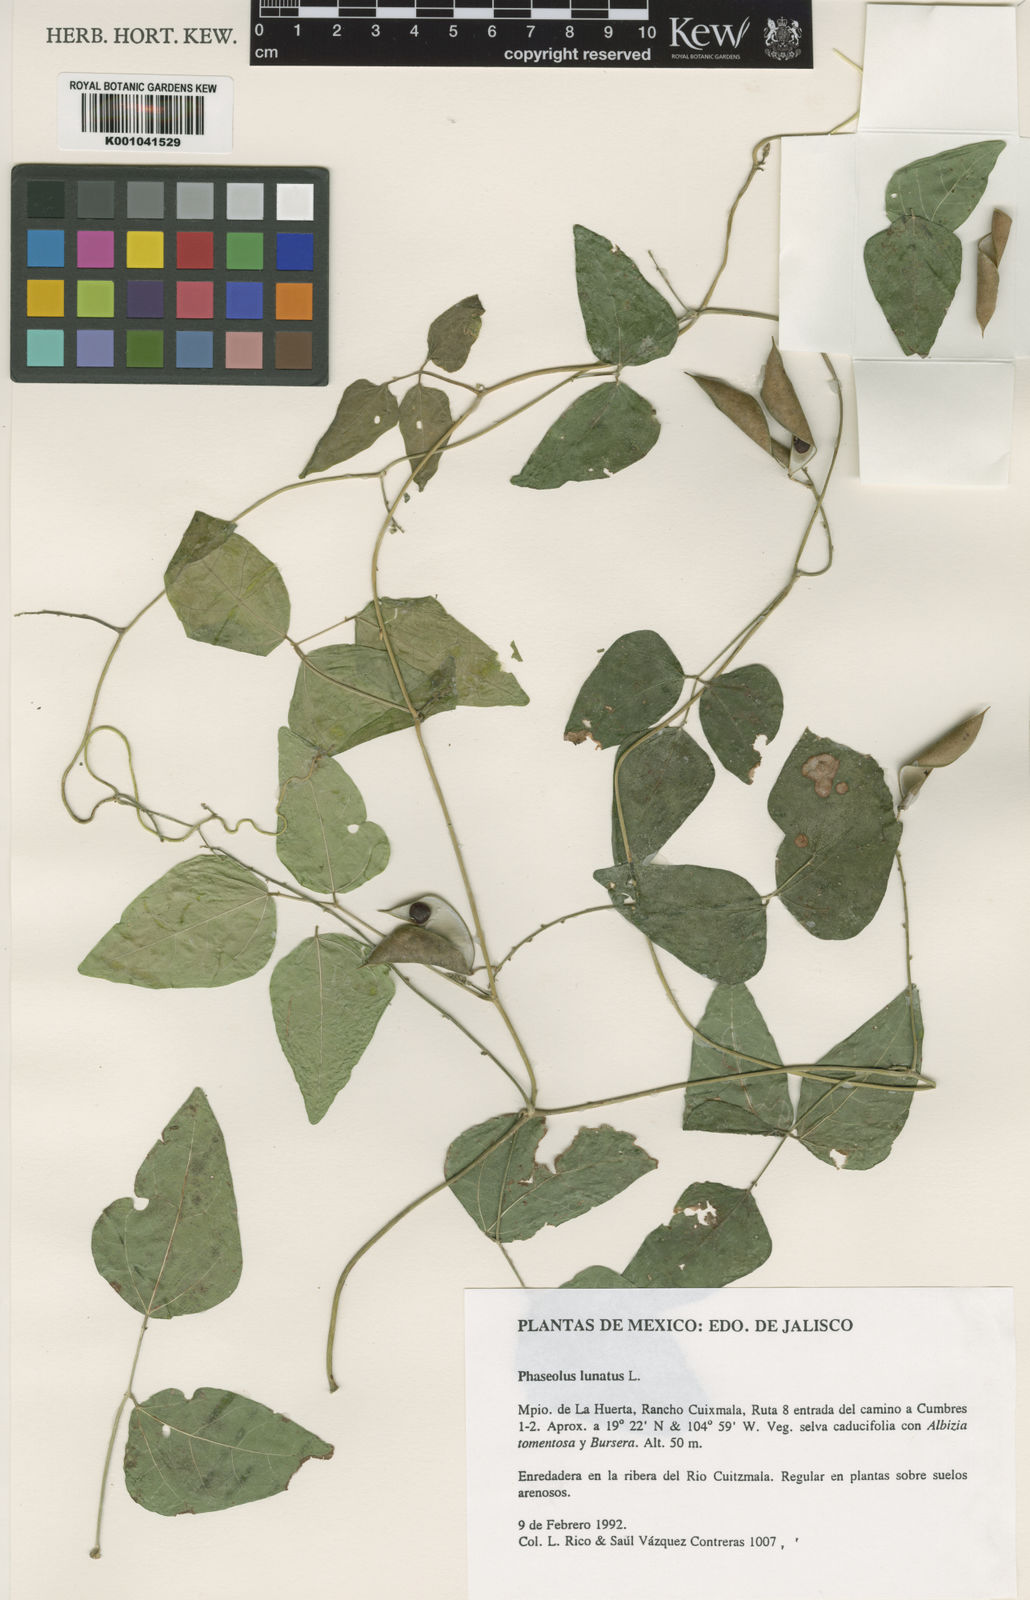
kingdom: Plantae
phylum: Tracheophyta
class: Magnoliopsida
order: Fabales
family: Fabaceae
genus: Phaseolus
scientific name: Phaseolus lunatus
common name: Sieva bean
